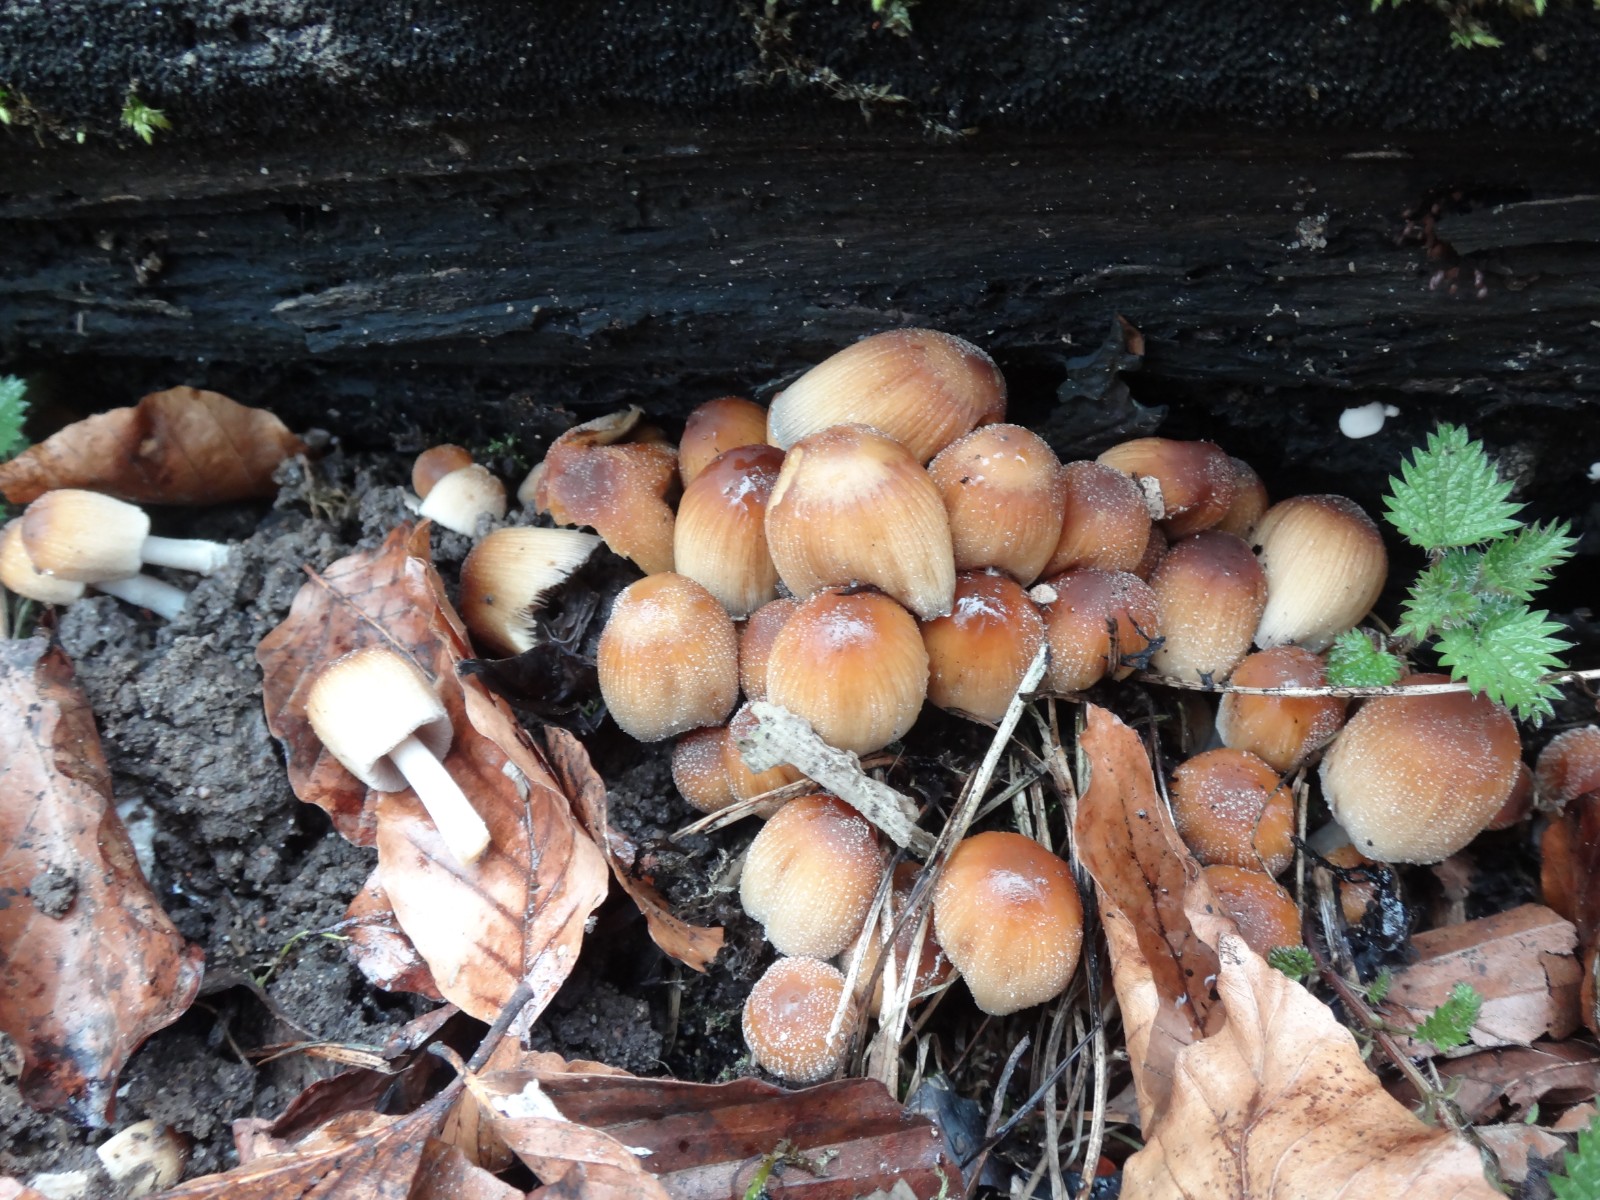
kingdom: Fungi
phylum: Basidiomycota
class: Agaricomycetes
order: Agaricales
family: Psathyrellaceae
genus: Coprinellus
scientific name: Coprinellus micaceus
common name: glimmer-blækhat
